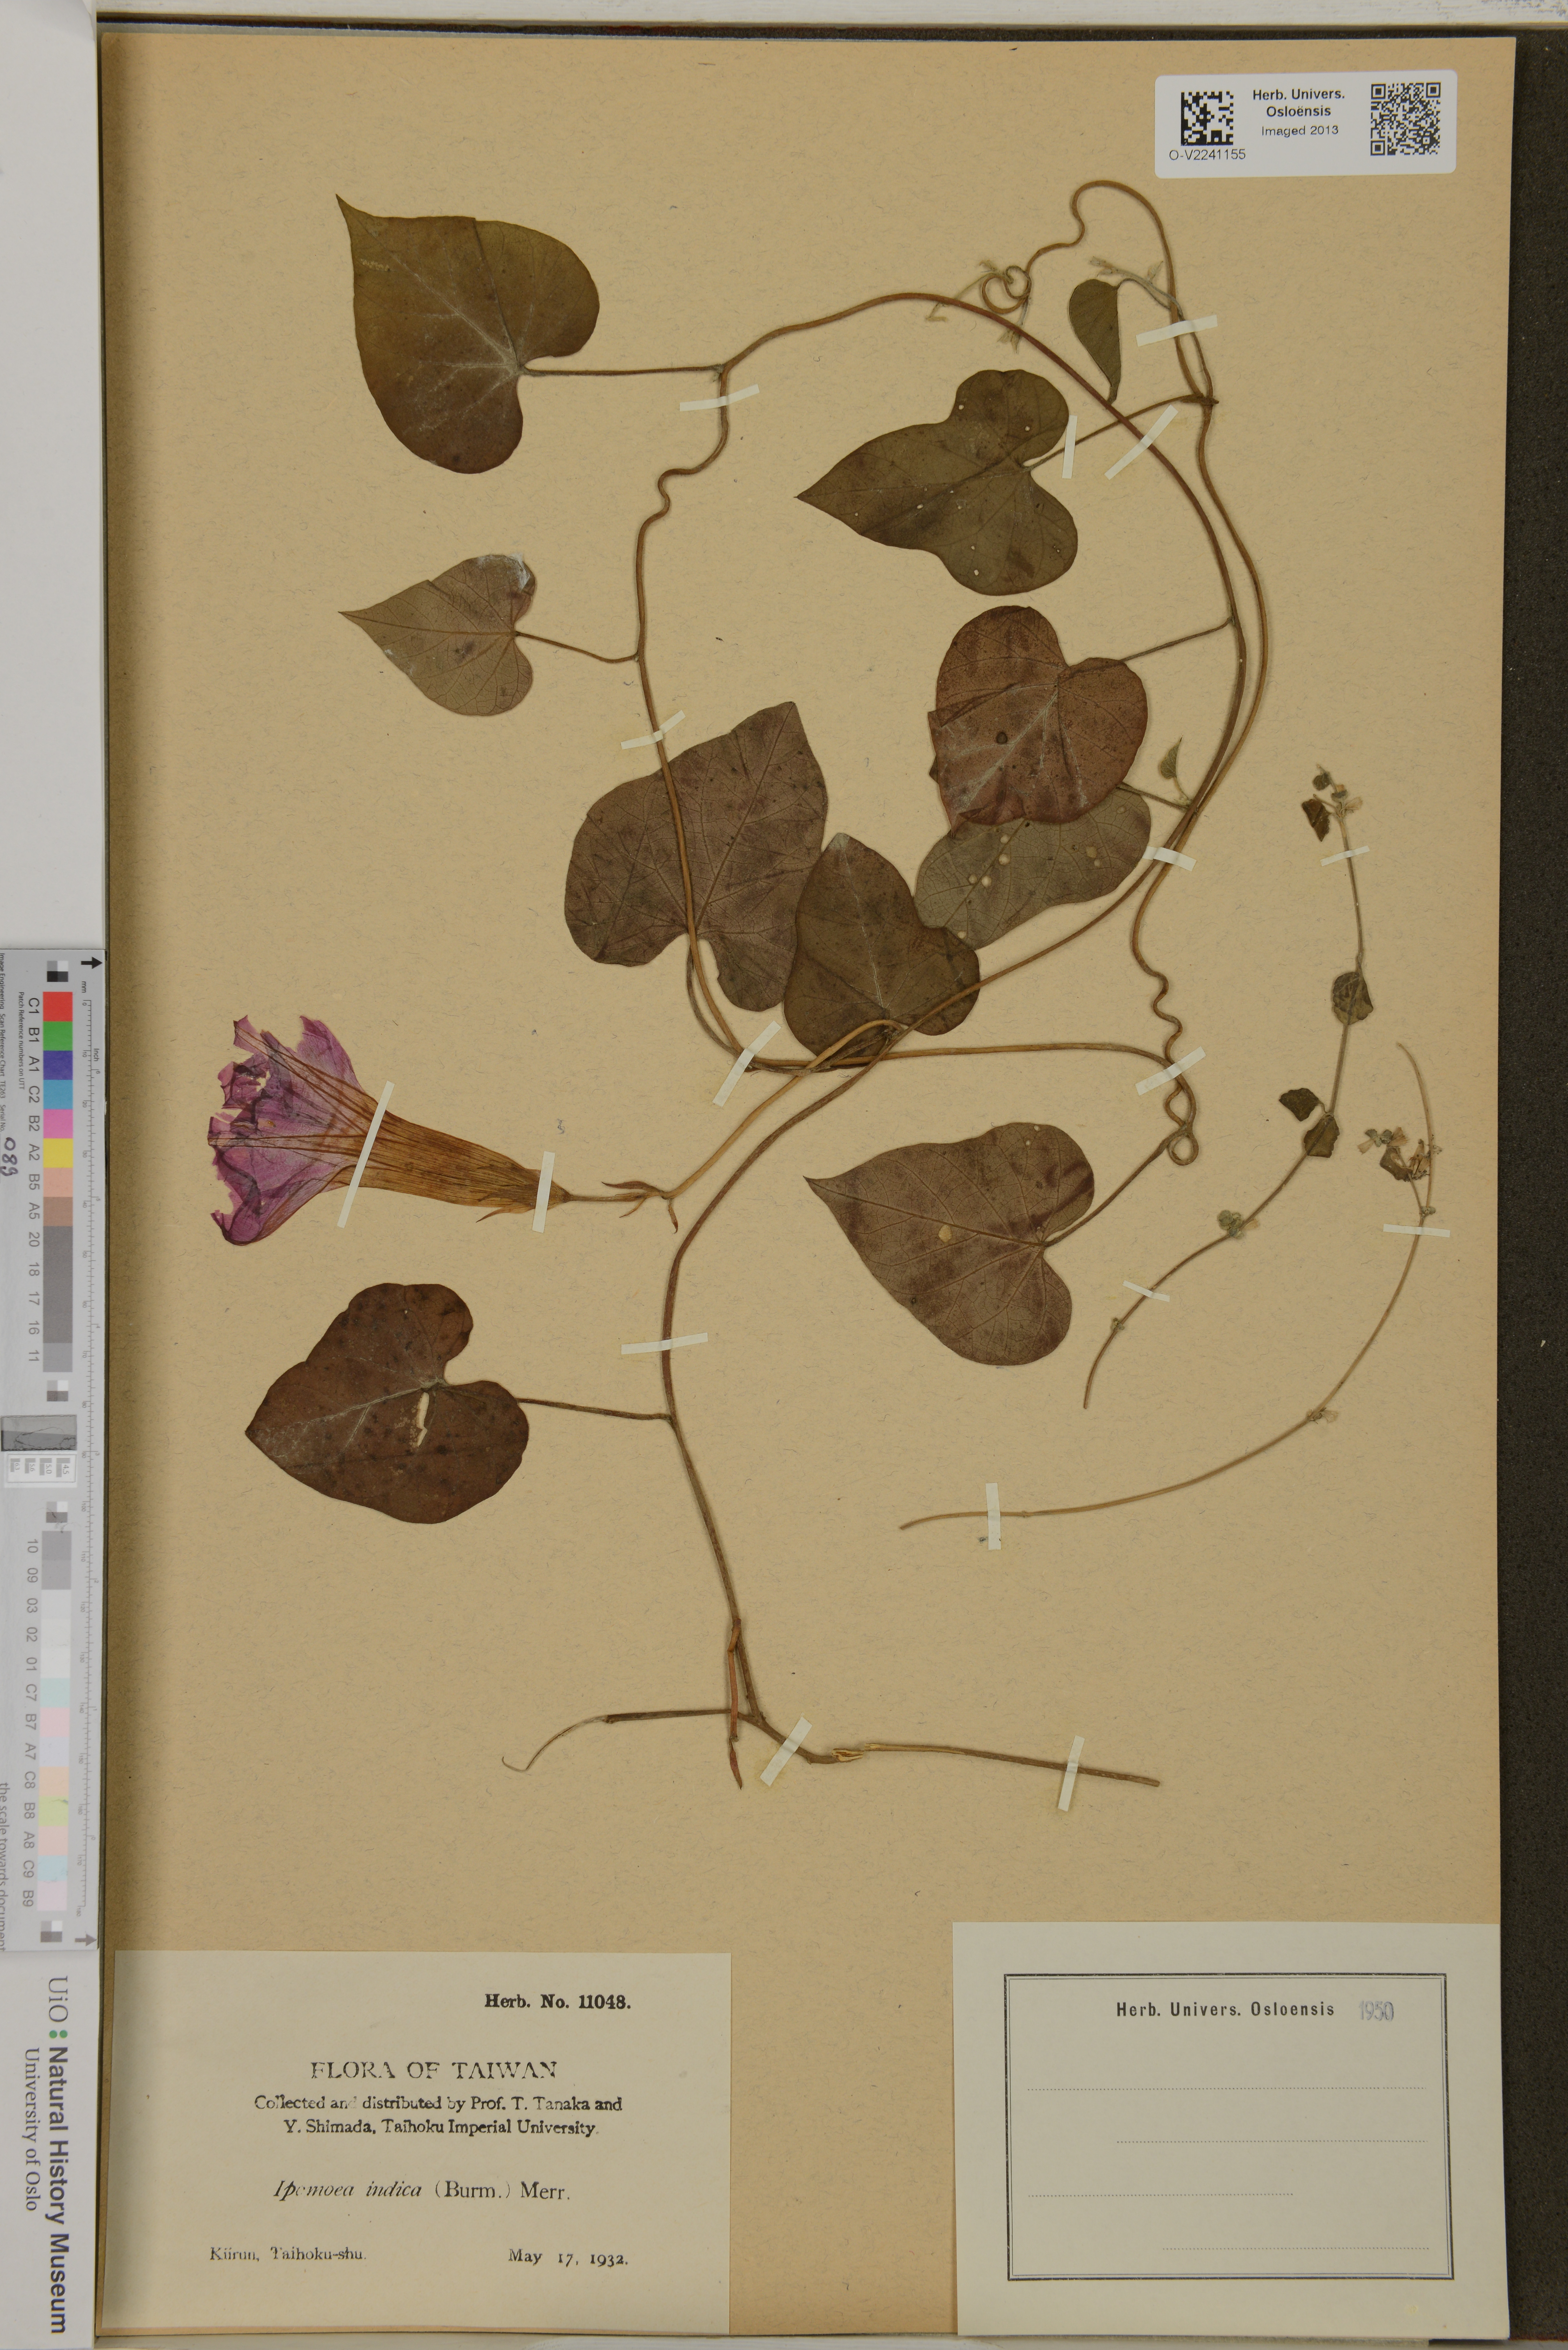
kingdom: Plantae
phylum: Tracheophyta
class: Magnoliopsida
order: Solanales
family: Convolvulaceae
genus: Ipomoea
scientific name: Ipomoea indica
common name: Blue dawnflower
